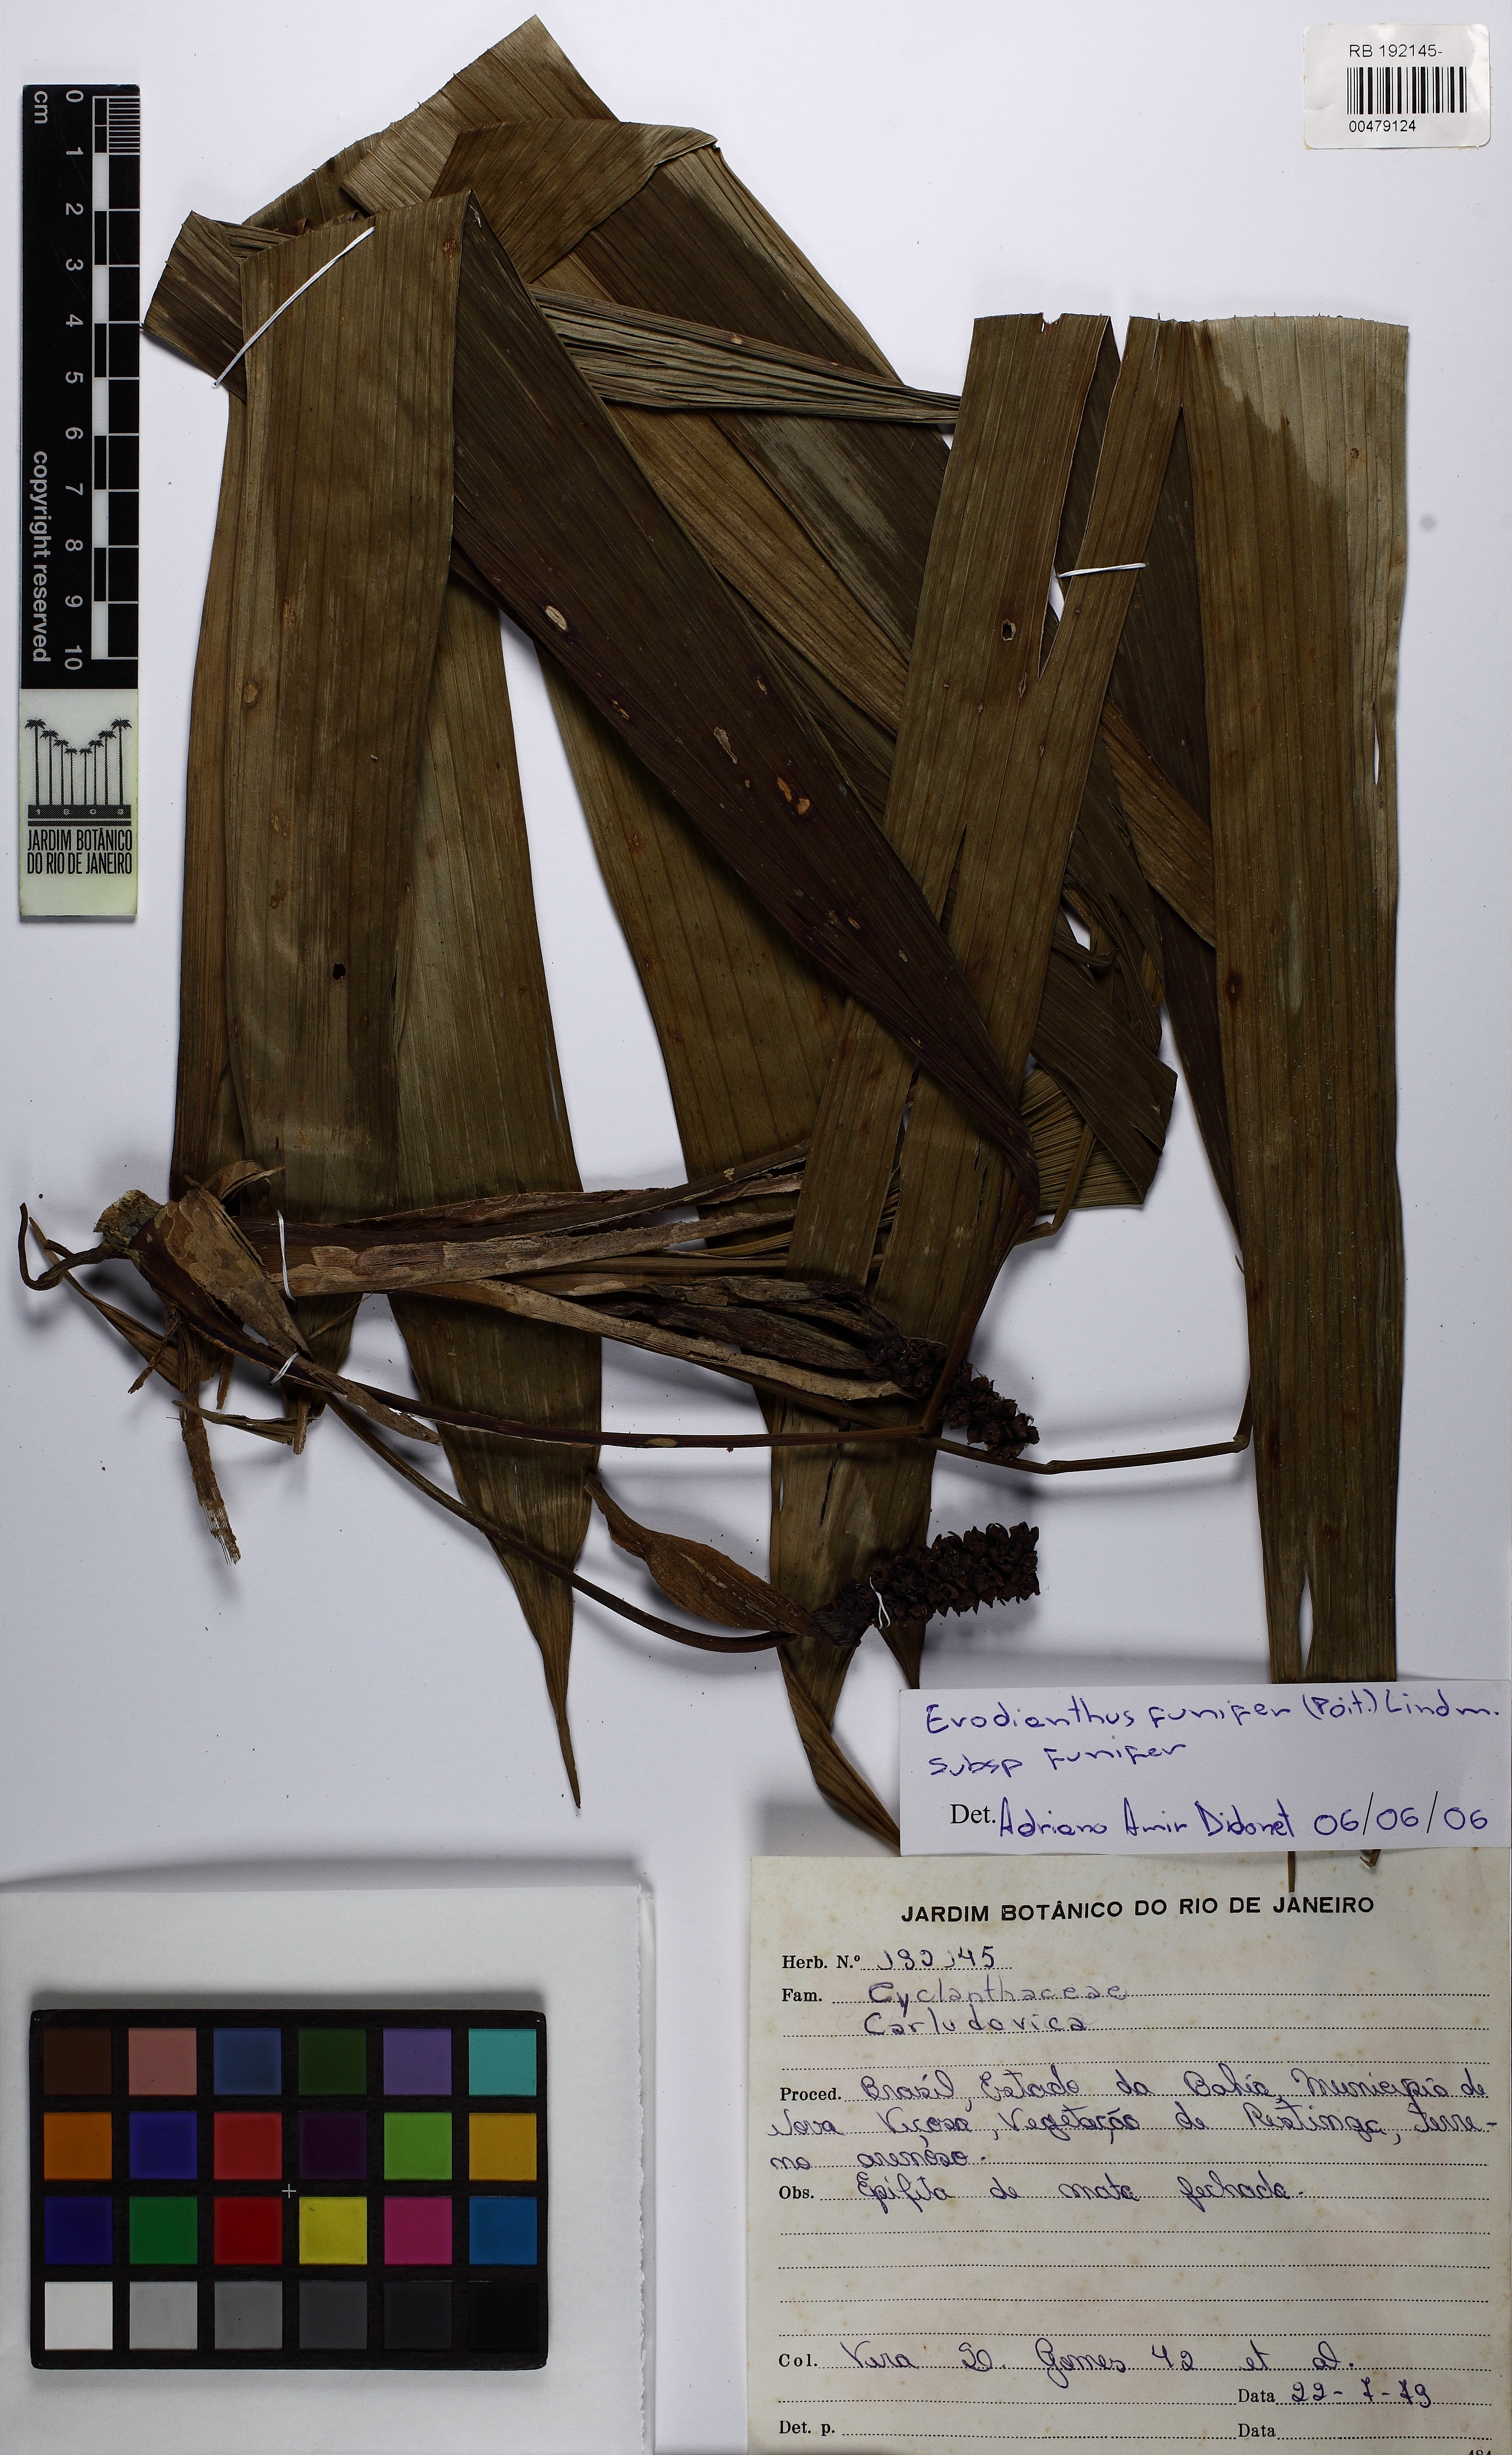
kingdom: Plantae
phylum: Tracheophyta
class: Liliopsida
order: Pandanales
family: Cyclanthaceae
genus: Evodianthus
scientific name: Evodianthus funifer
